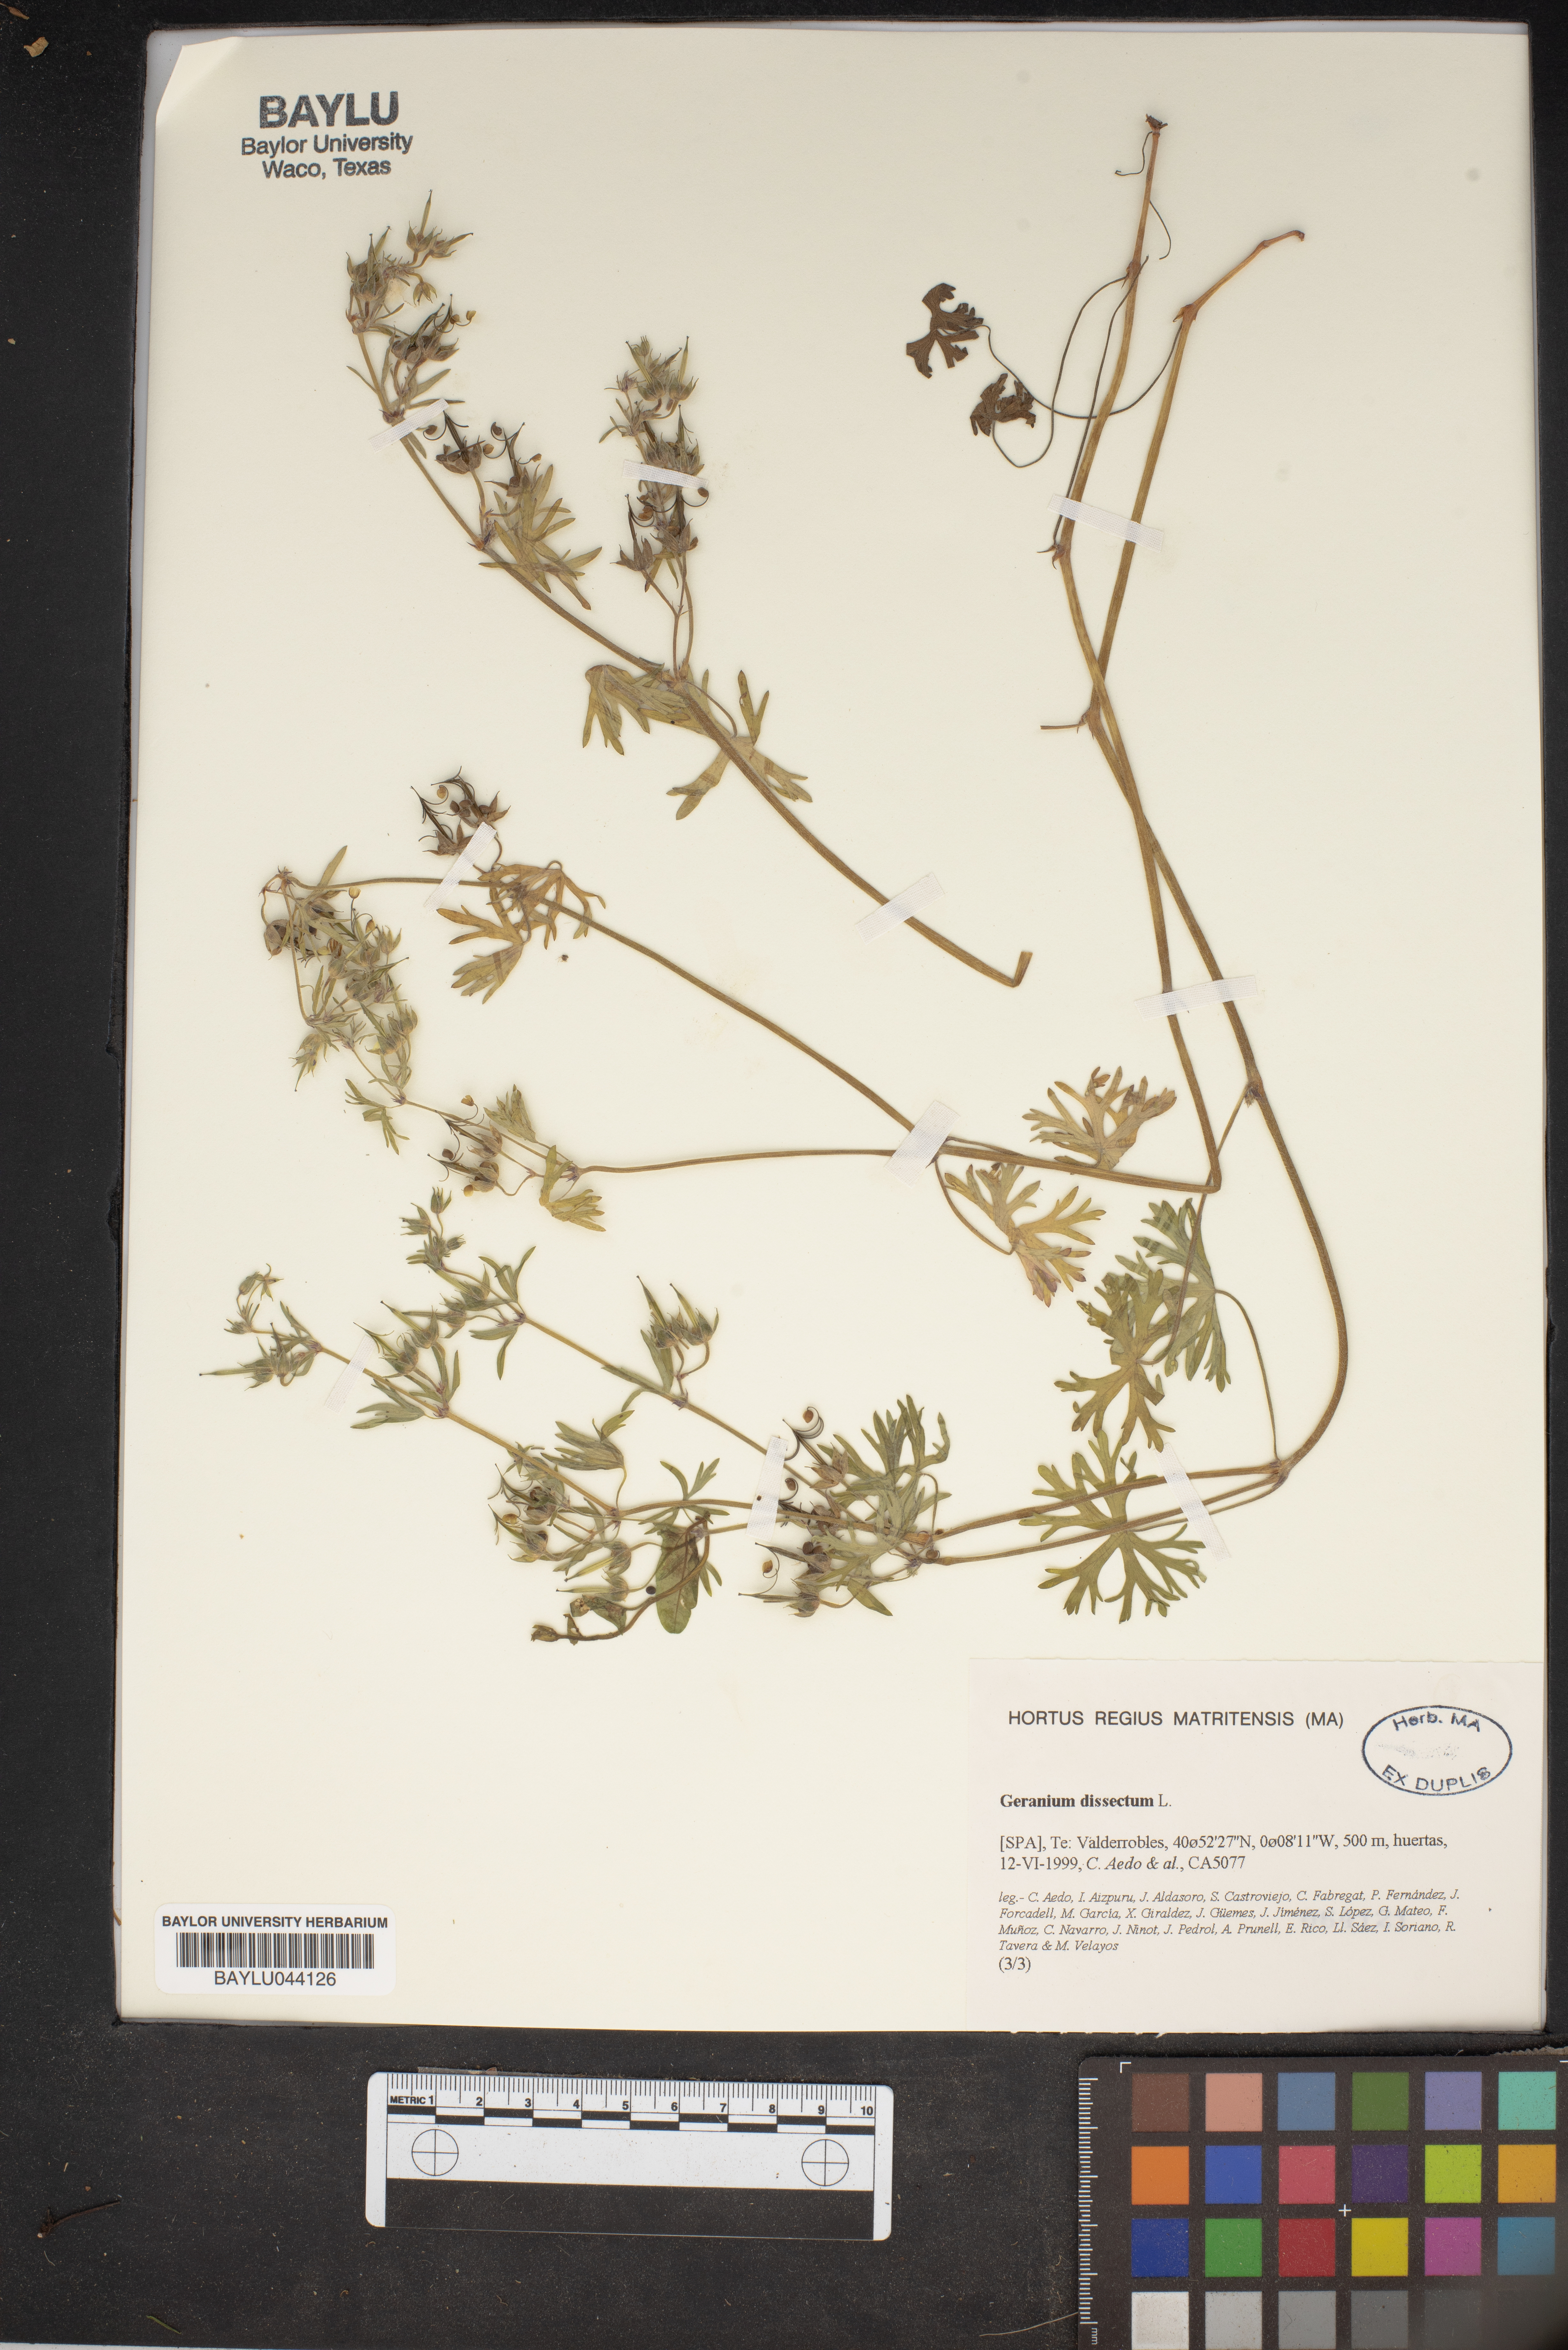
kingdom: Plantae
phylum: Tracheophyta
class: Magnoliopsida
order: Geraniales
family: Geraniaceae
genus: Geranium
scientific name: Geranium dissectum
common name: Cut-leaved crane's-bill
